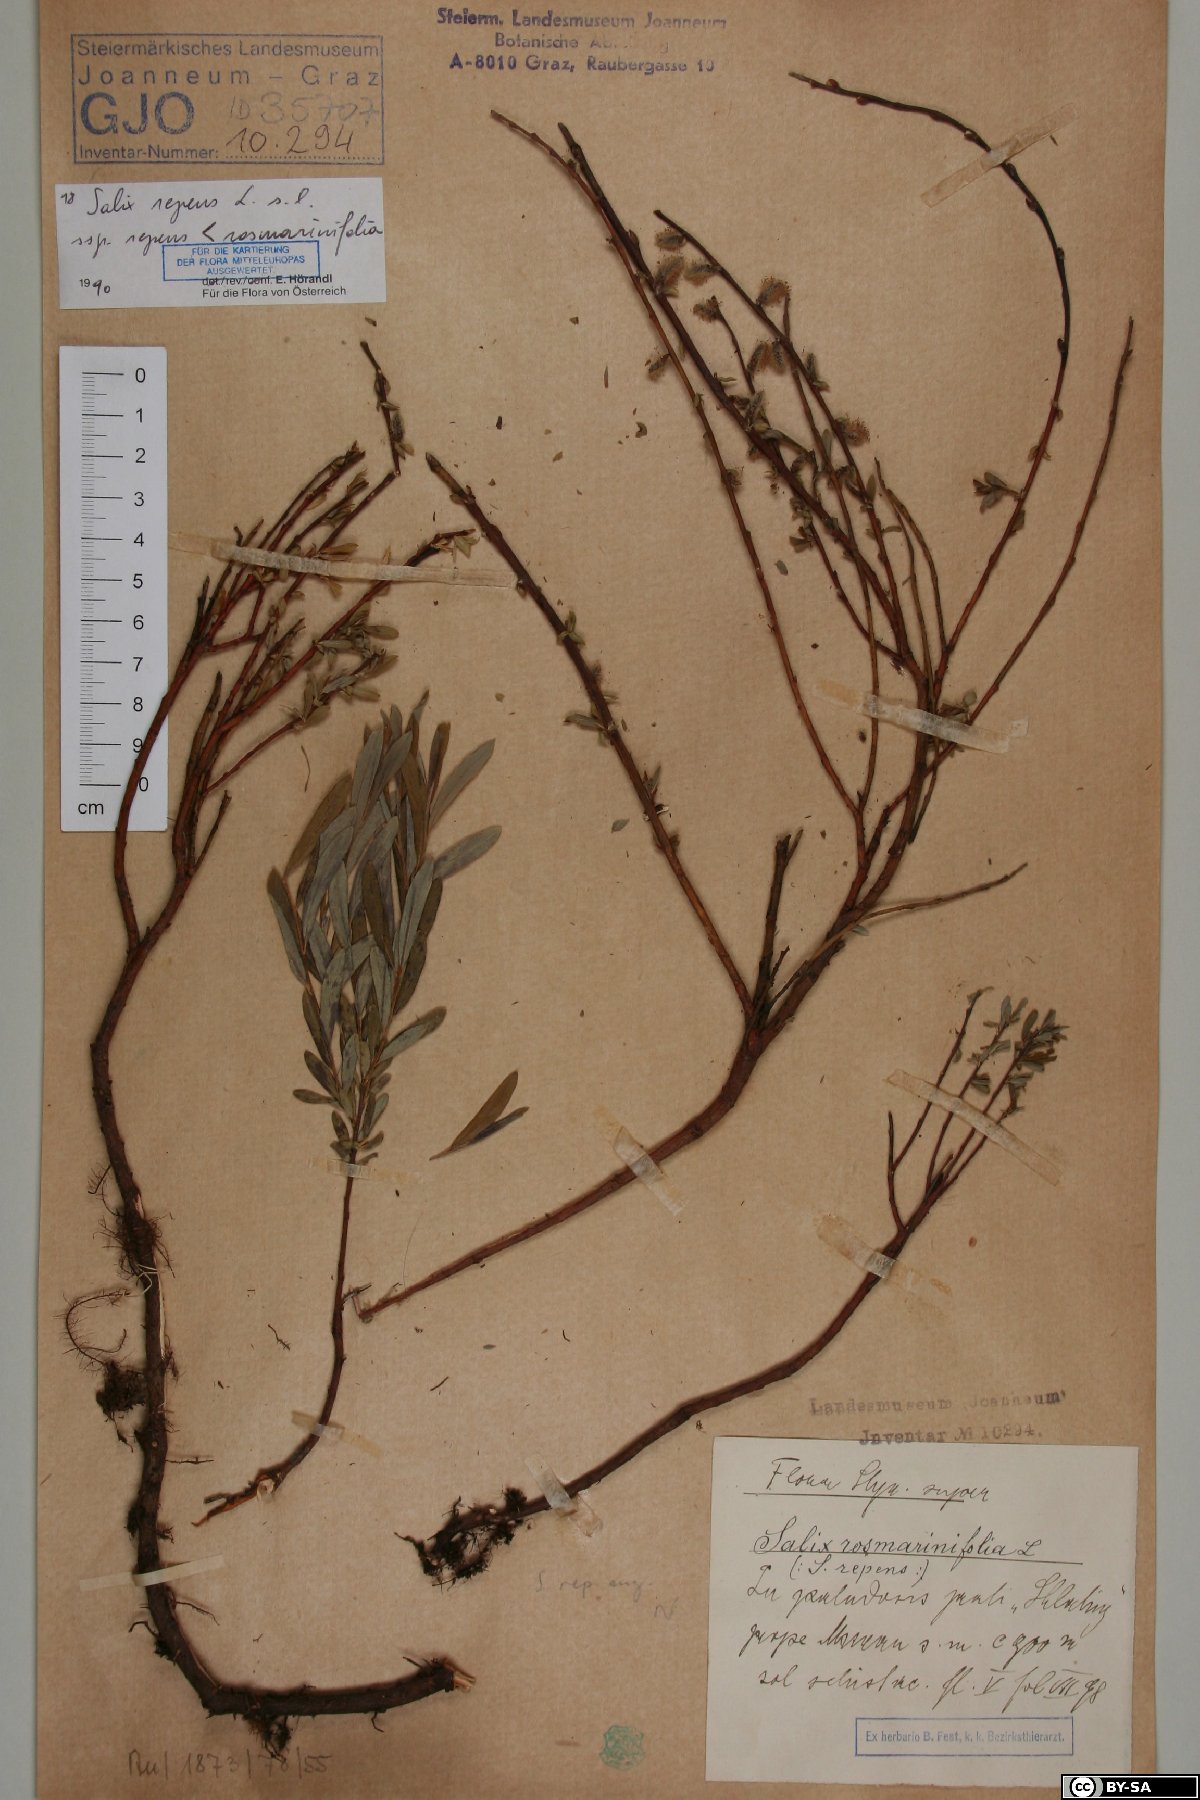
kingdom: Plantae
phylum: Tracheophyta
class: Magnoliopsida
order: Malpighiales
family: Salicaceae
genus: Salix
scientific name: Salix repens
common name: Creeping willow
